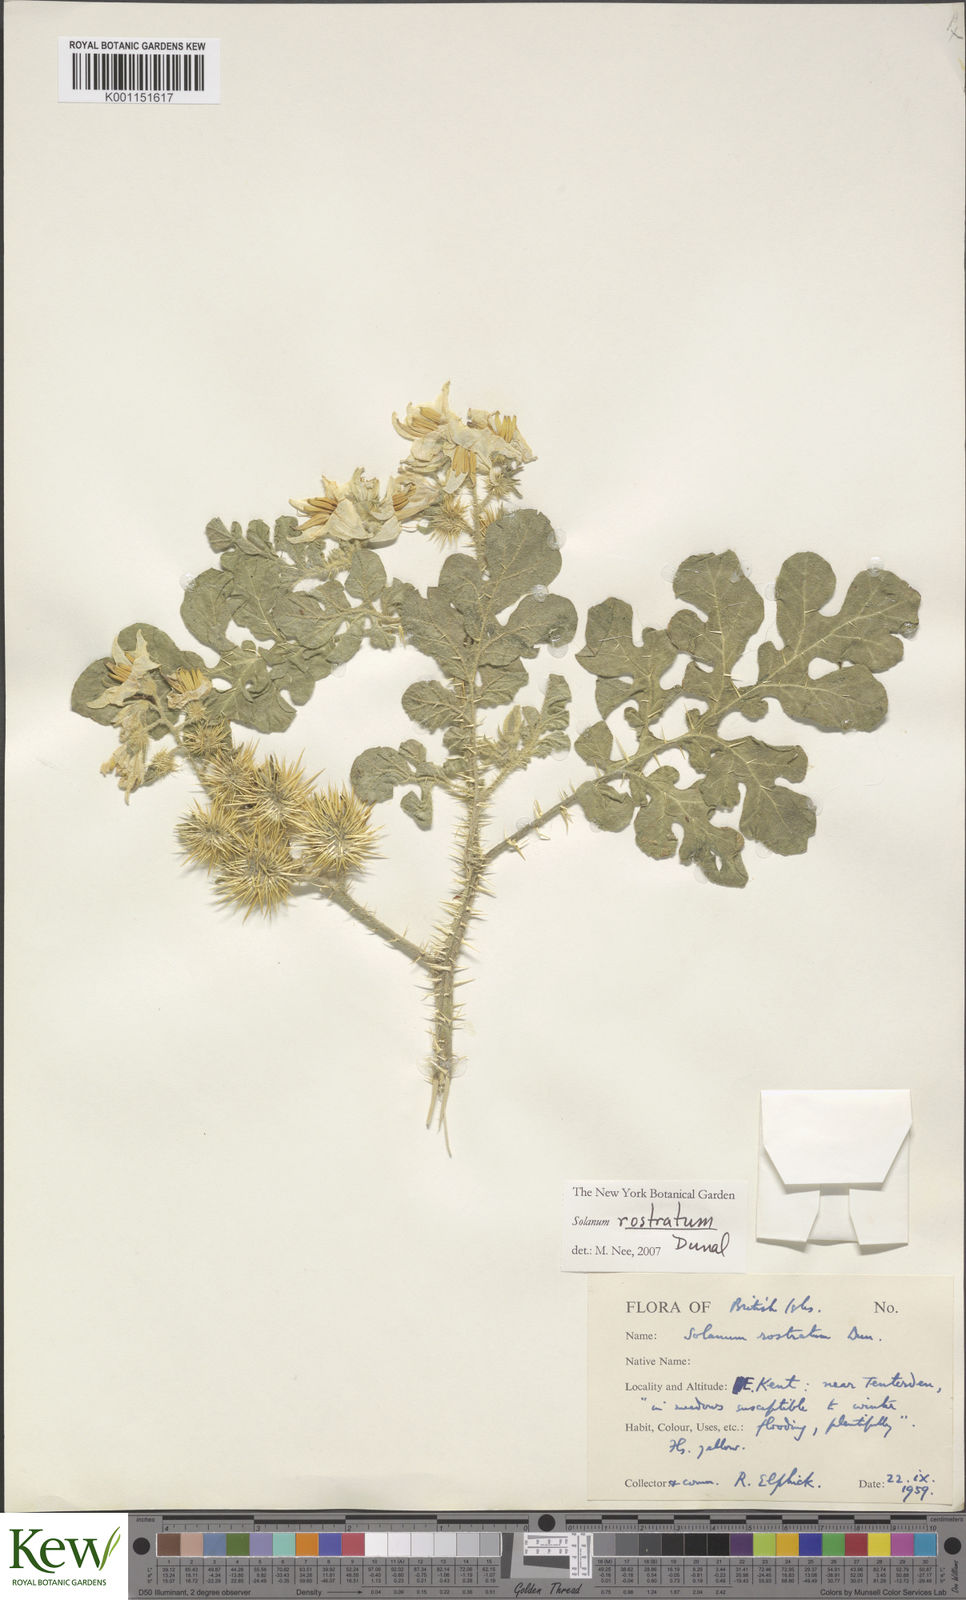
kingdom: Plantae
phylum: Tracheophyta
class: Magnoliopsida
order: Solanales
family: Solanaceae
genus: Solanum
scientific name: Solanum angustifolium
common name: Buffalobur nightshade
